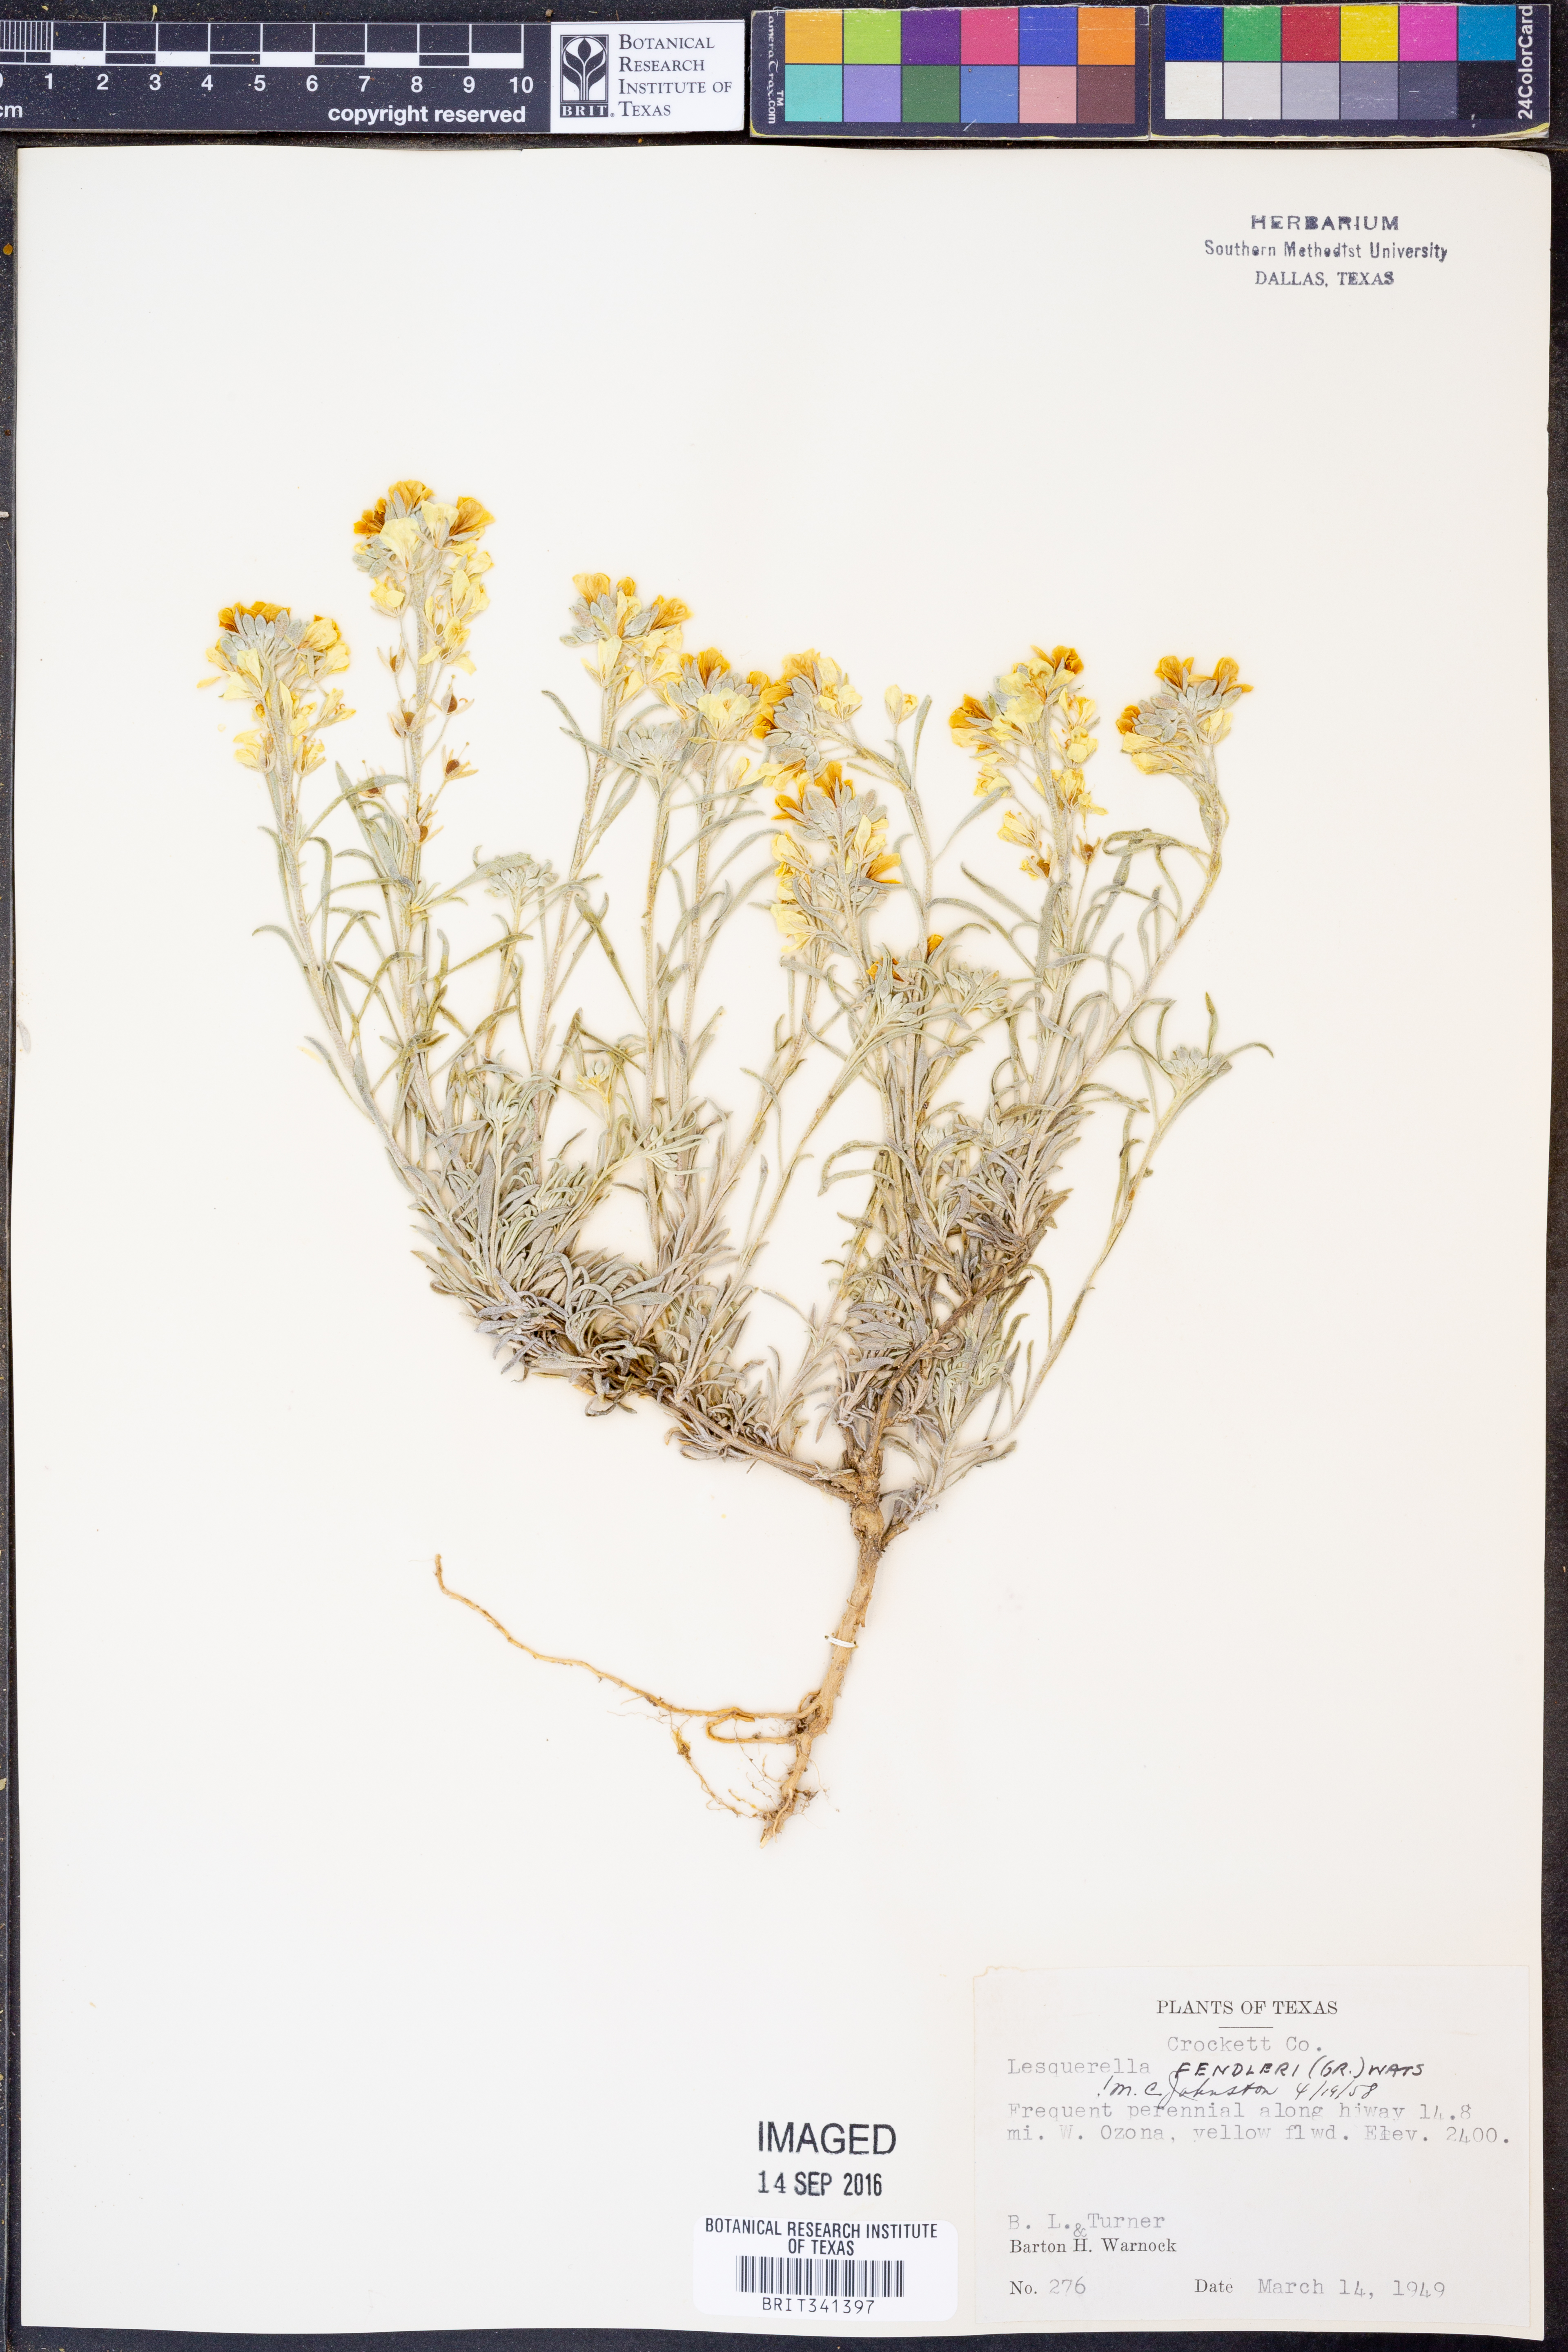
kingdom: Plantae
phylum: Tracheophyta
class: Magnoliopsida
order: Brassicales
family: Brassicaceae
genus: Physaria
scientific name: Physaria fendleri
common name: Fendler's bladderpod
